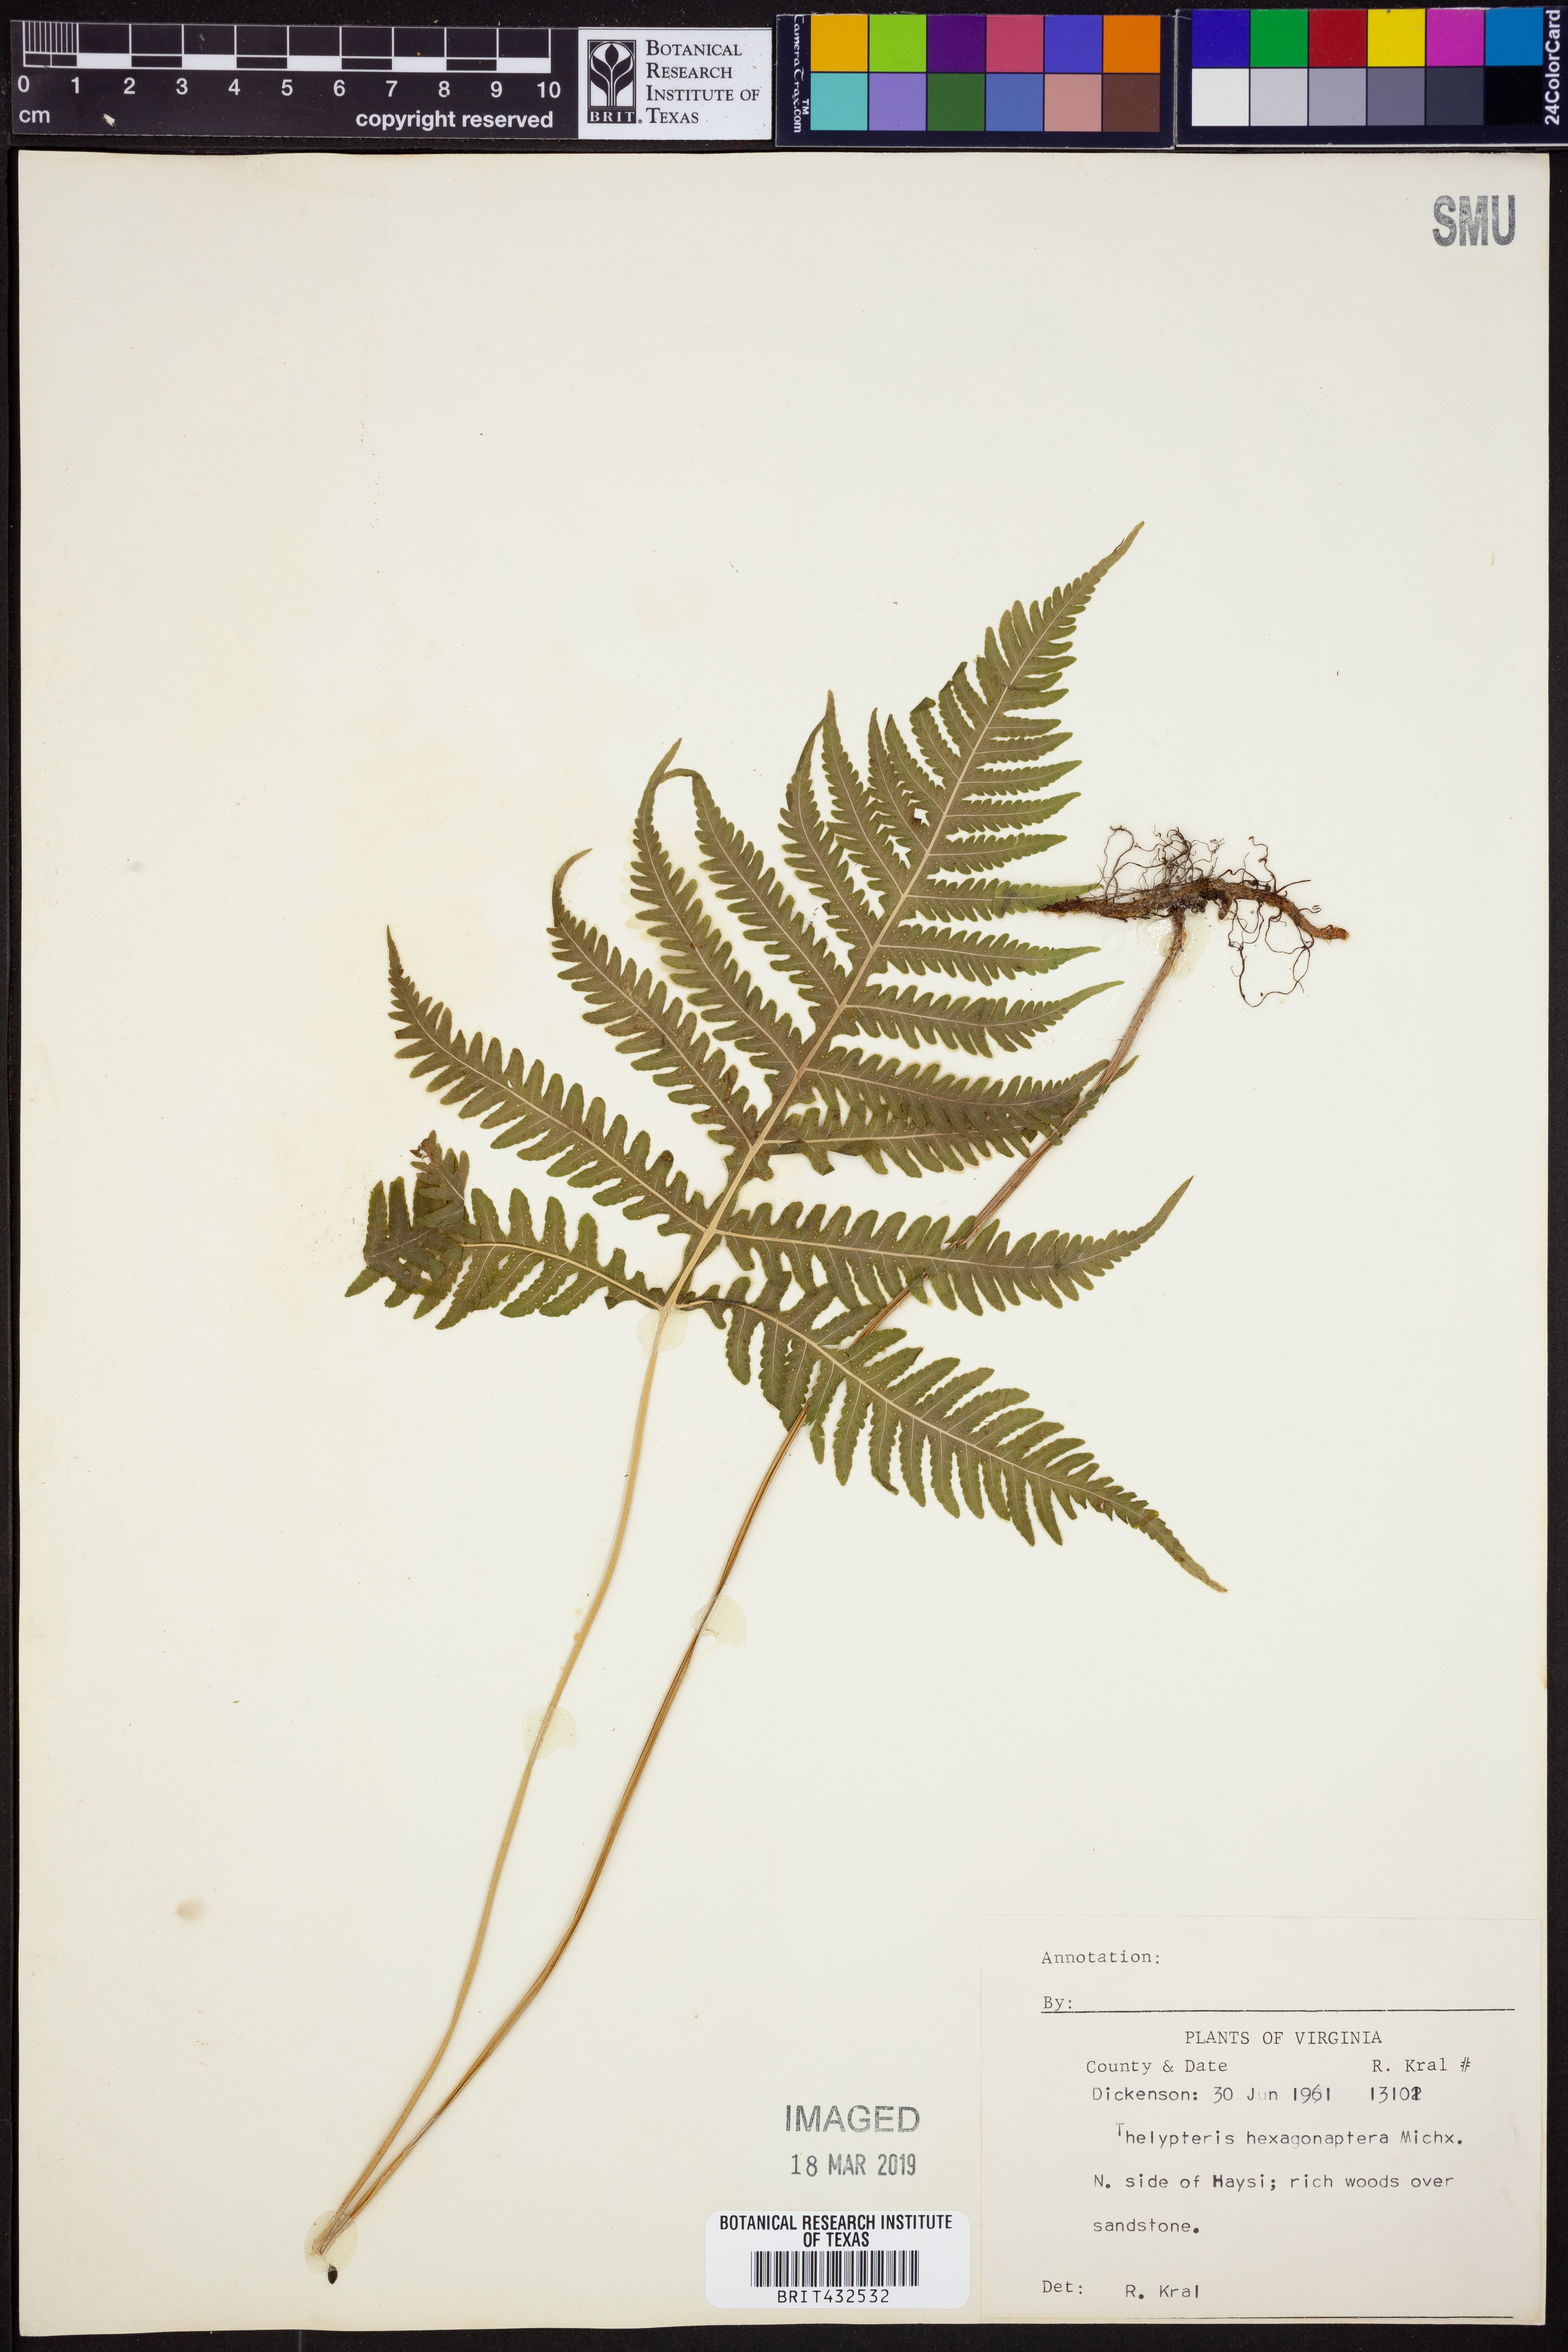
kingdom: Plantae
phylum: Tracheophyta
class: Polypodiopsida
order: Polypodiales
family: Thelypteridaceae
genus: Phegopteris
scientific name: Phegopteris hexagonoptera
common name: Broad beech fern
